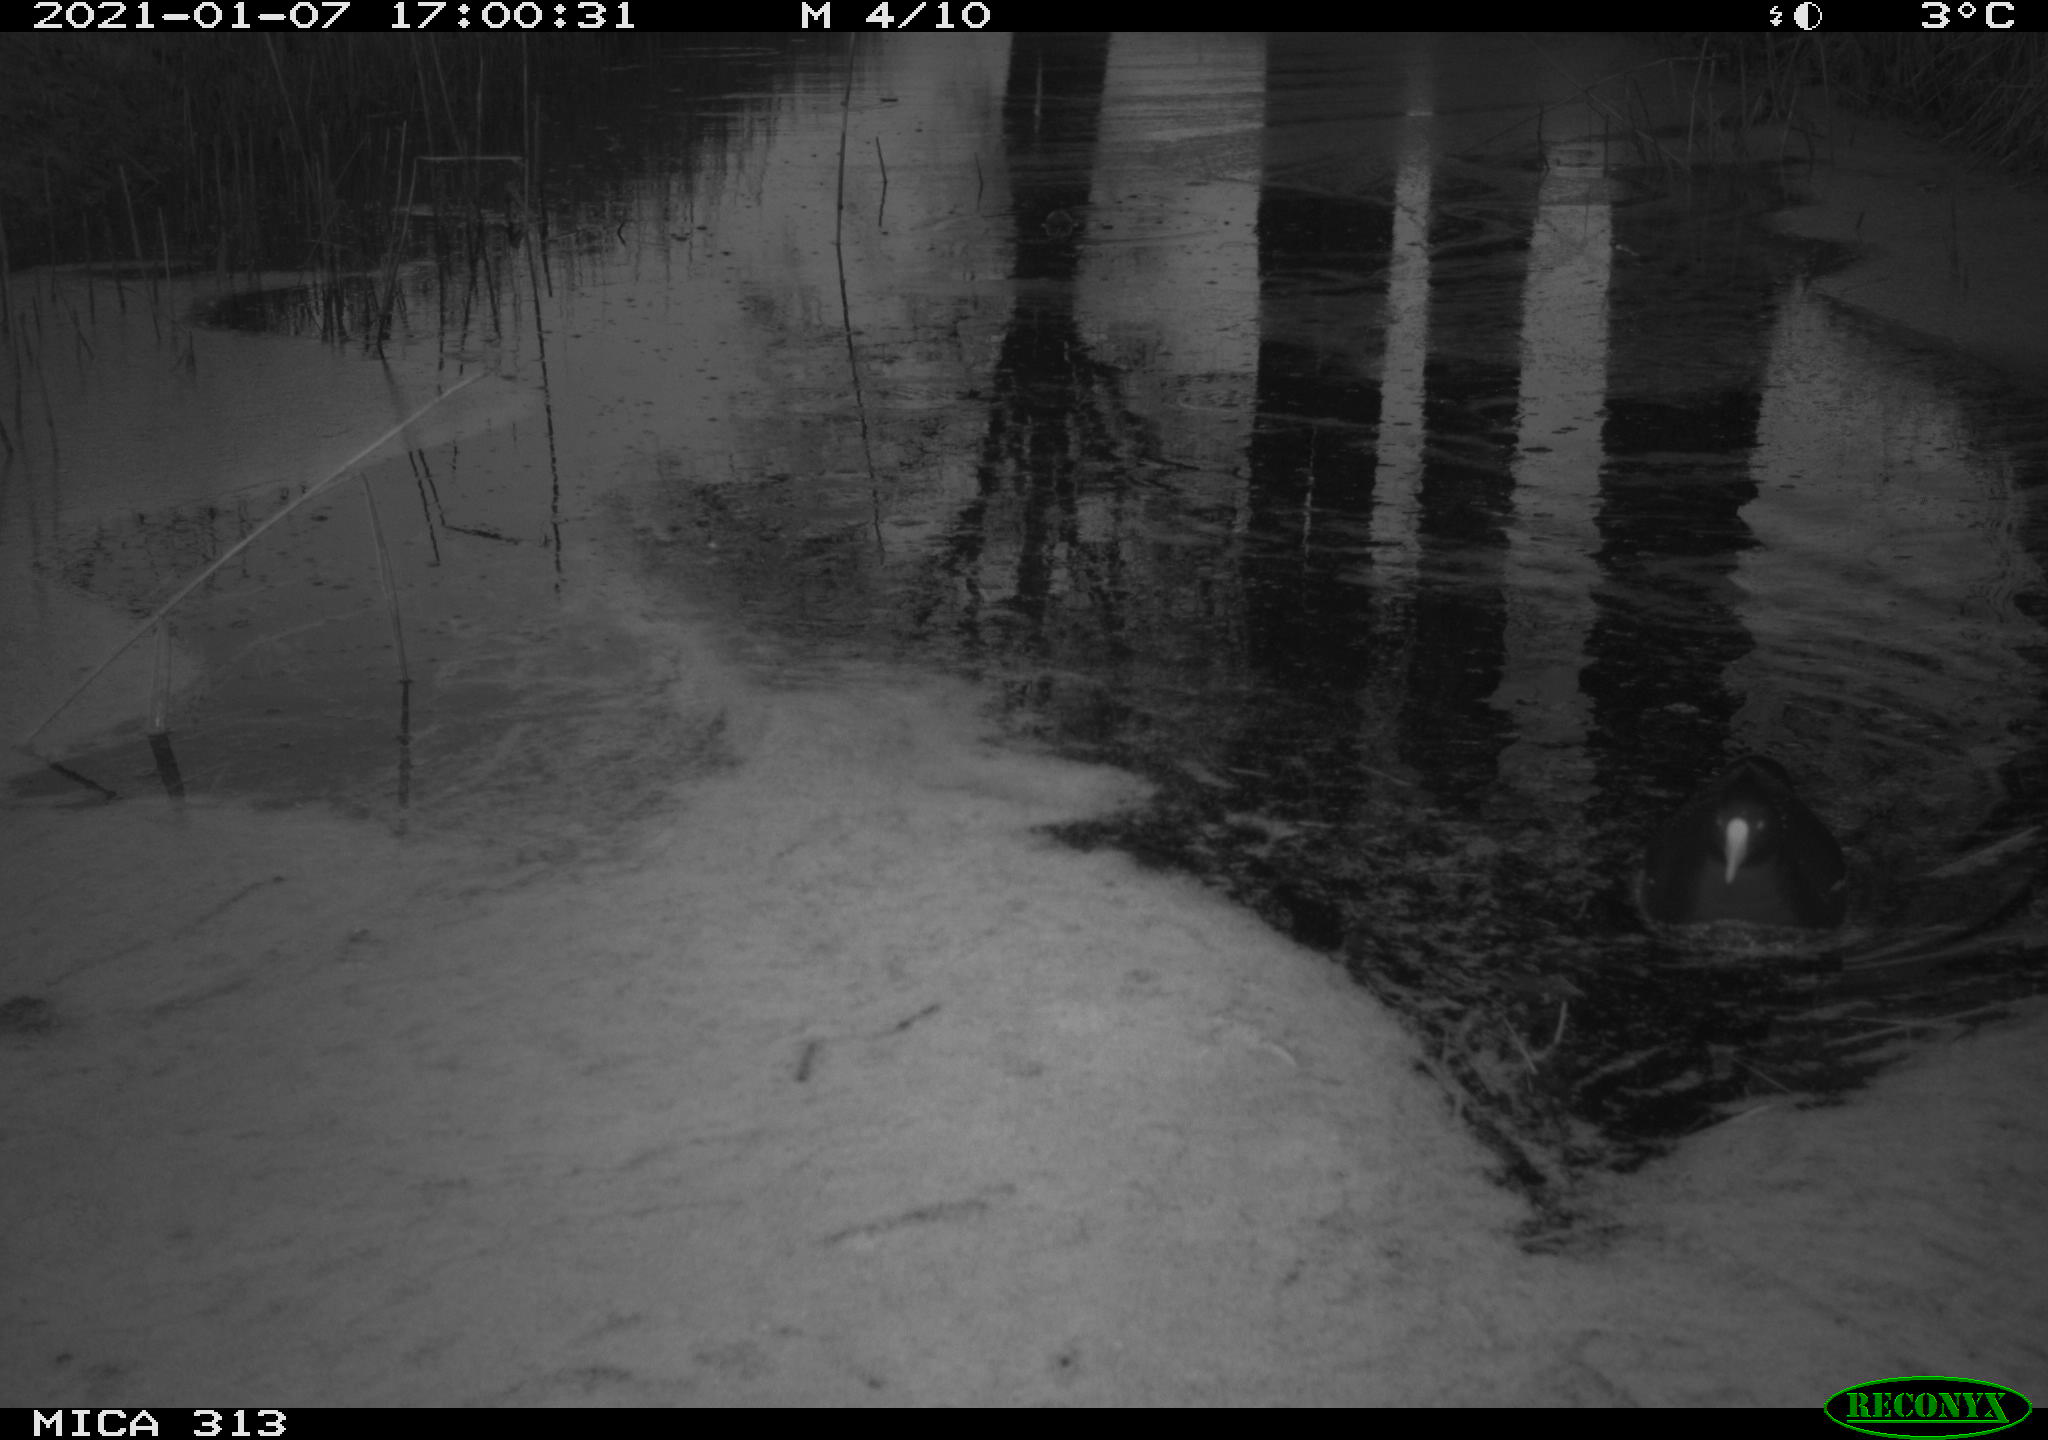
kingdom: Animalia
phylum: Chordata
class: Aves
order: Gruiformes
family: Rallidae
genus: Gallinula
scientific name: Gallinula chloropus
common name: Common moorhen
